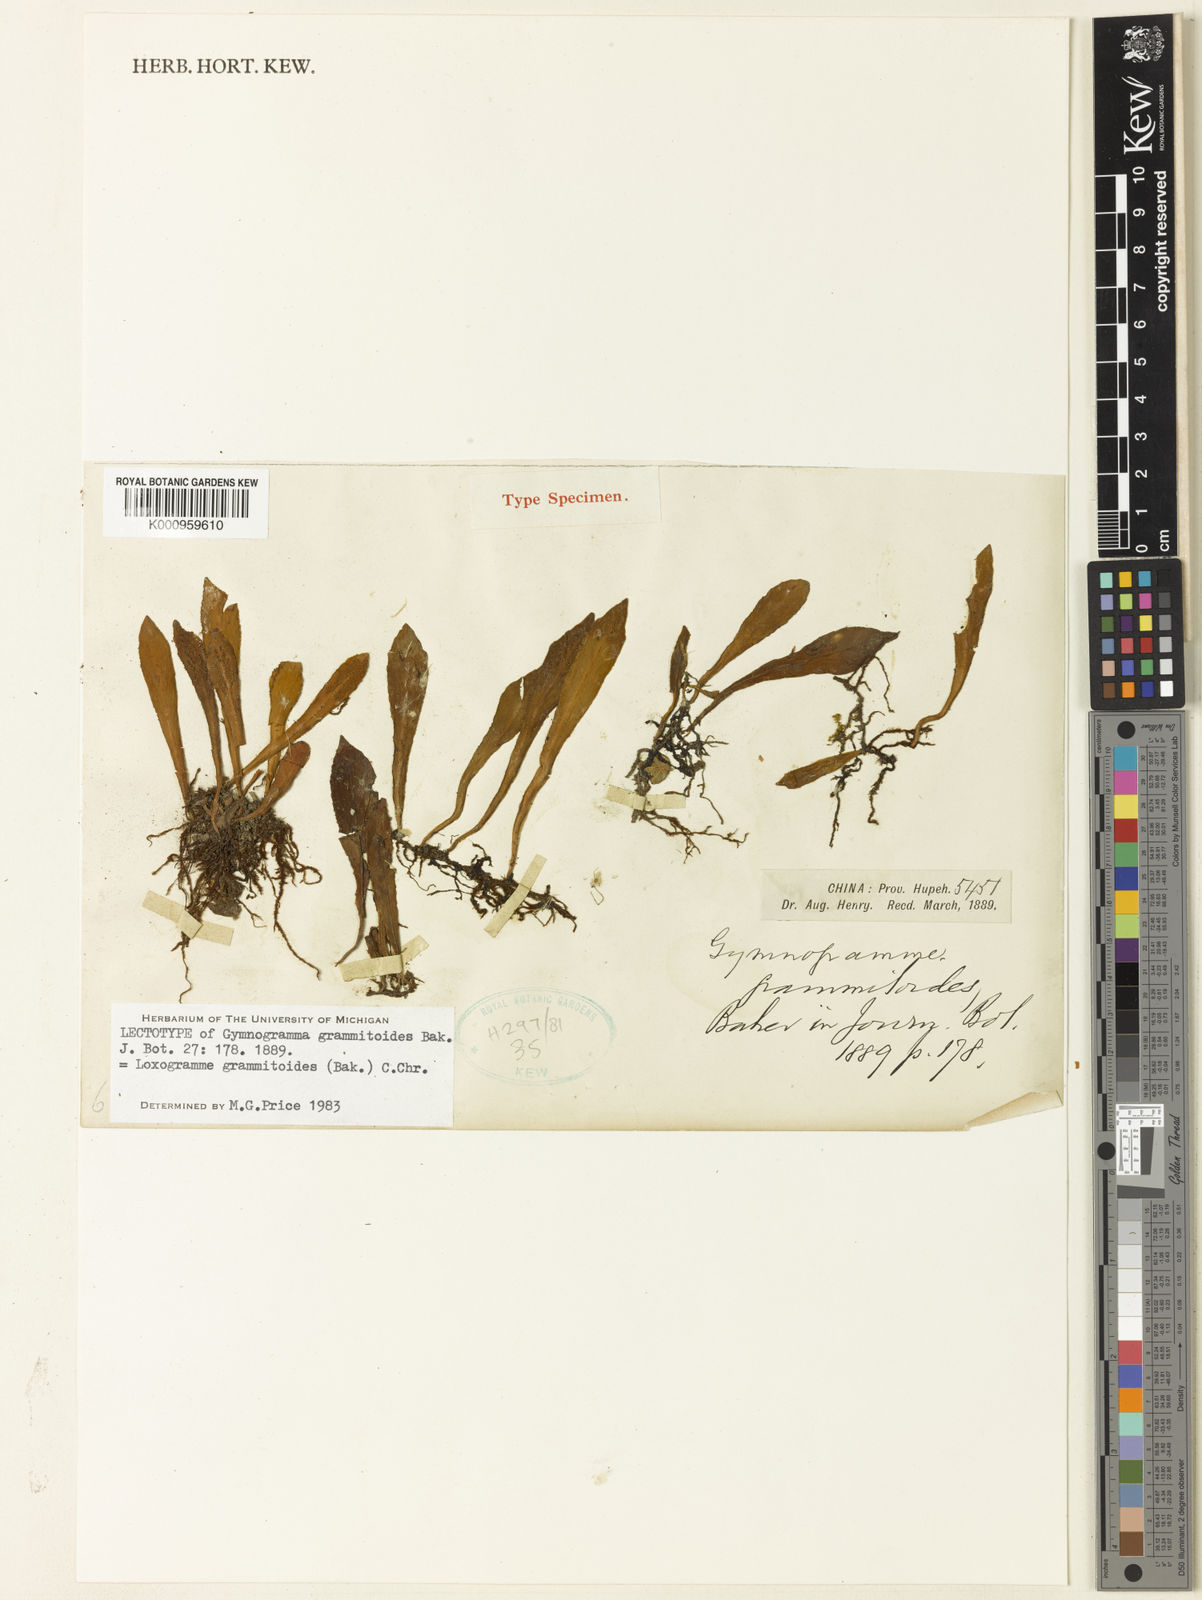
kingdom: Plantae
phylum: Tracheophyta
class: Polypodiopsida
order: Polypodiales
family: Polypodiaceae
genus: Loxogramme
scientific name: Loxogramme grammitoides
